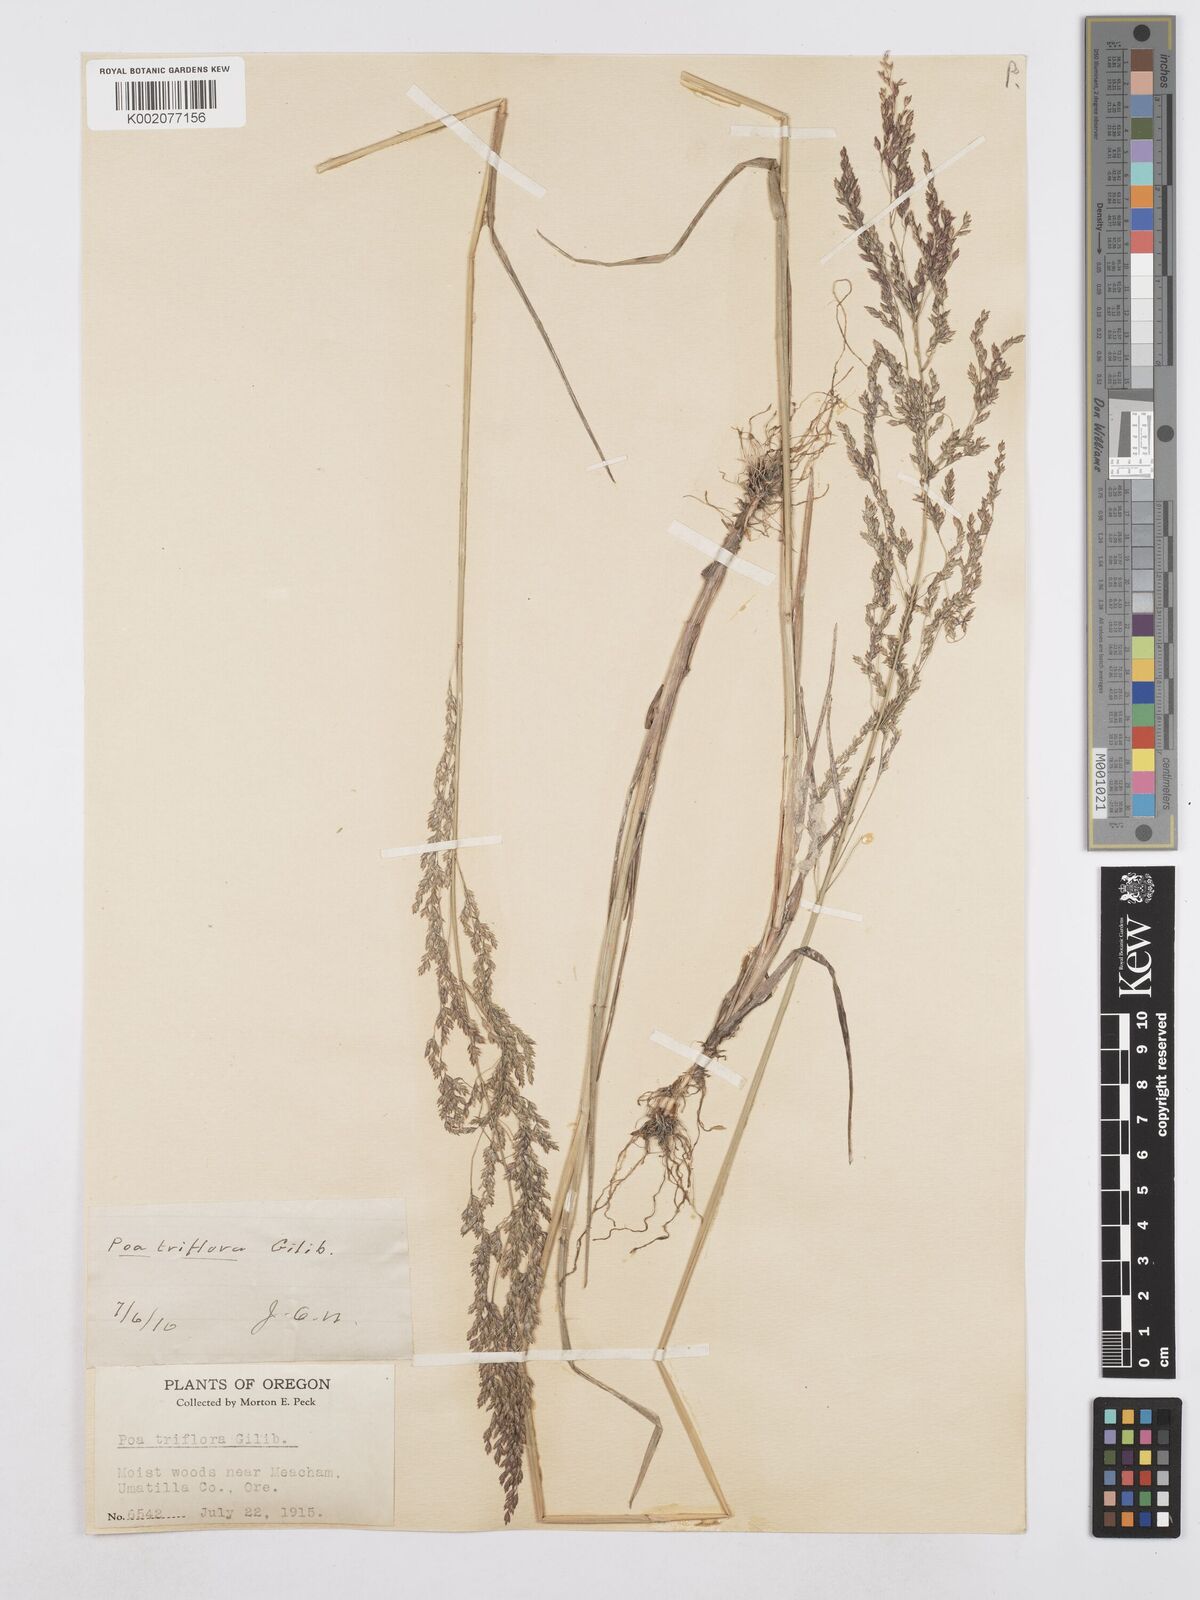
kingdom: Plantae
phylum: Tracheophyta
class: Liliopsida
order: Poales
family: Poaceae
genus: Poa
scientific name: Poa palustris
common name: Swamp meadow-grass
